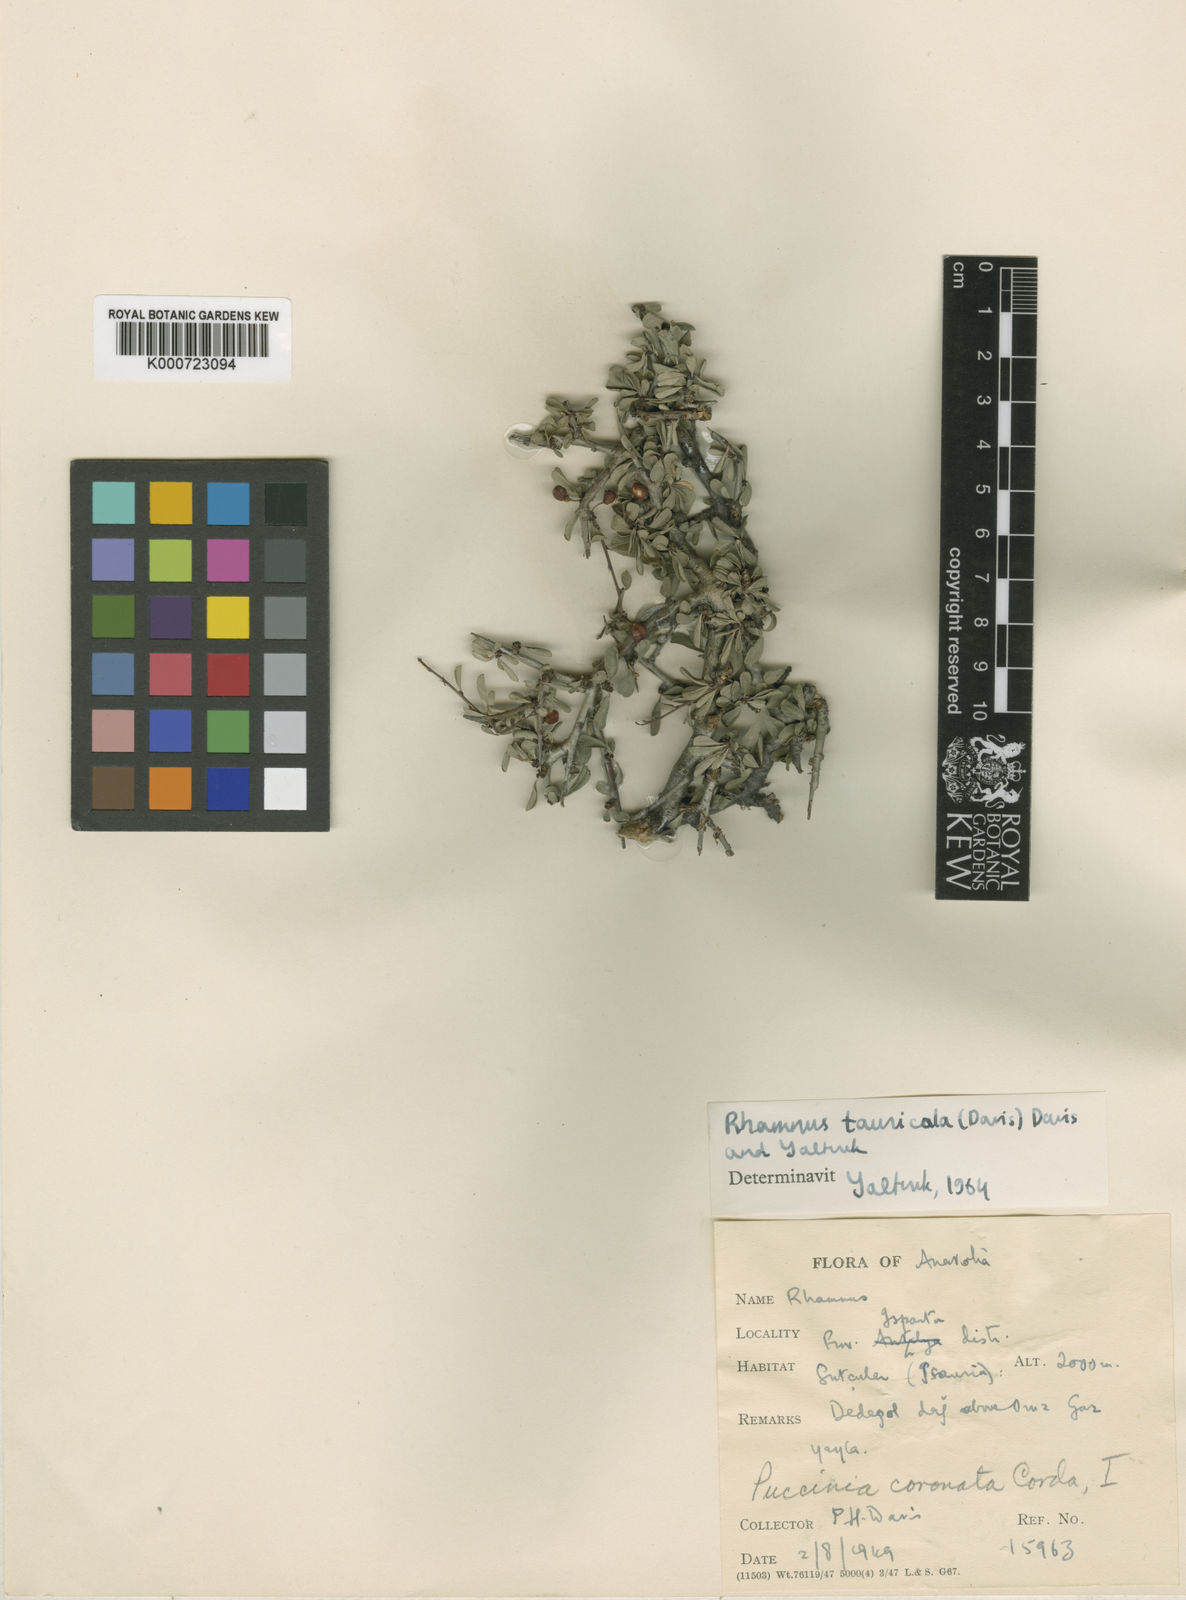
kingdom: Plantae
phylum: Tracheophyta
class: Magnoliopsida
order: Rosales
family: Rhamnaceae
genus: Rhamnus
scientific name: Rhamnus
